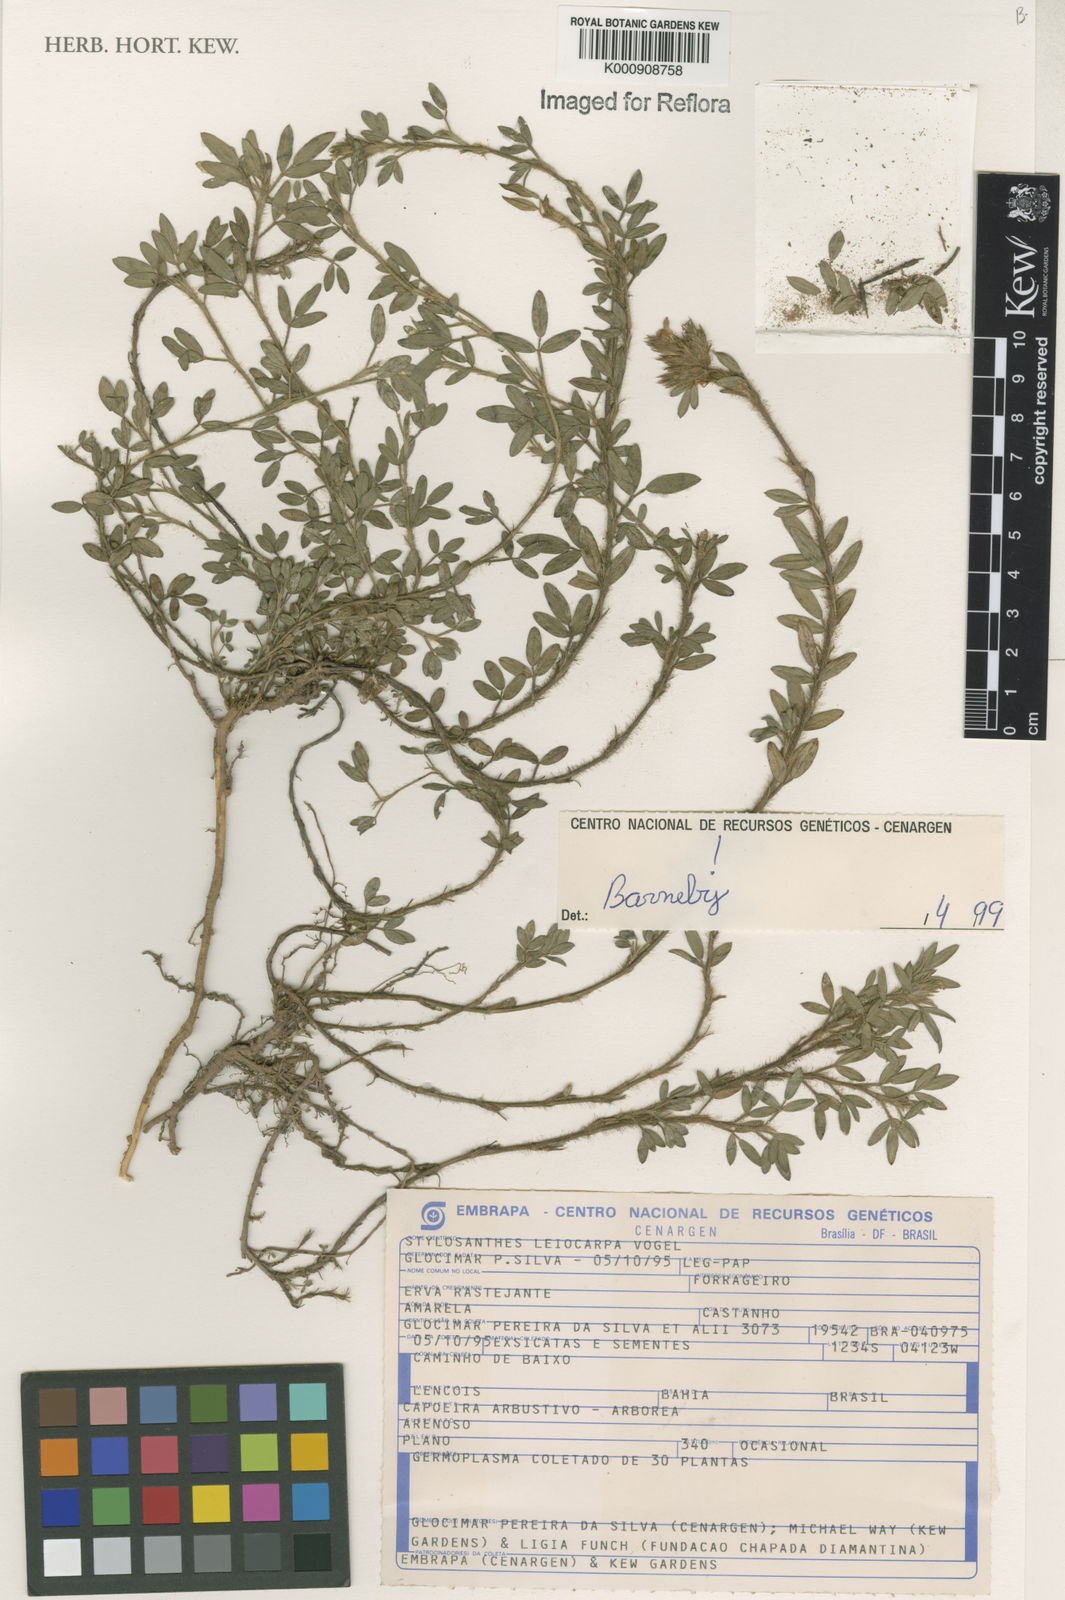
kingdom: Plantae
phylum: Tracheophyta
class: Magnoliopsida
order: Fabales
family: Fabaceae
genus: Stylosanthes
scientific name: Stylosanthes leiocarpa
